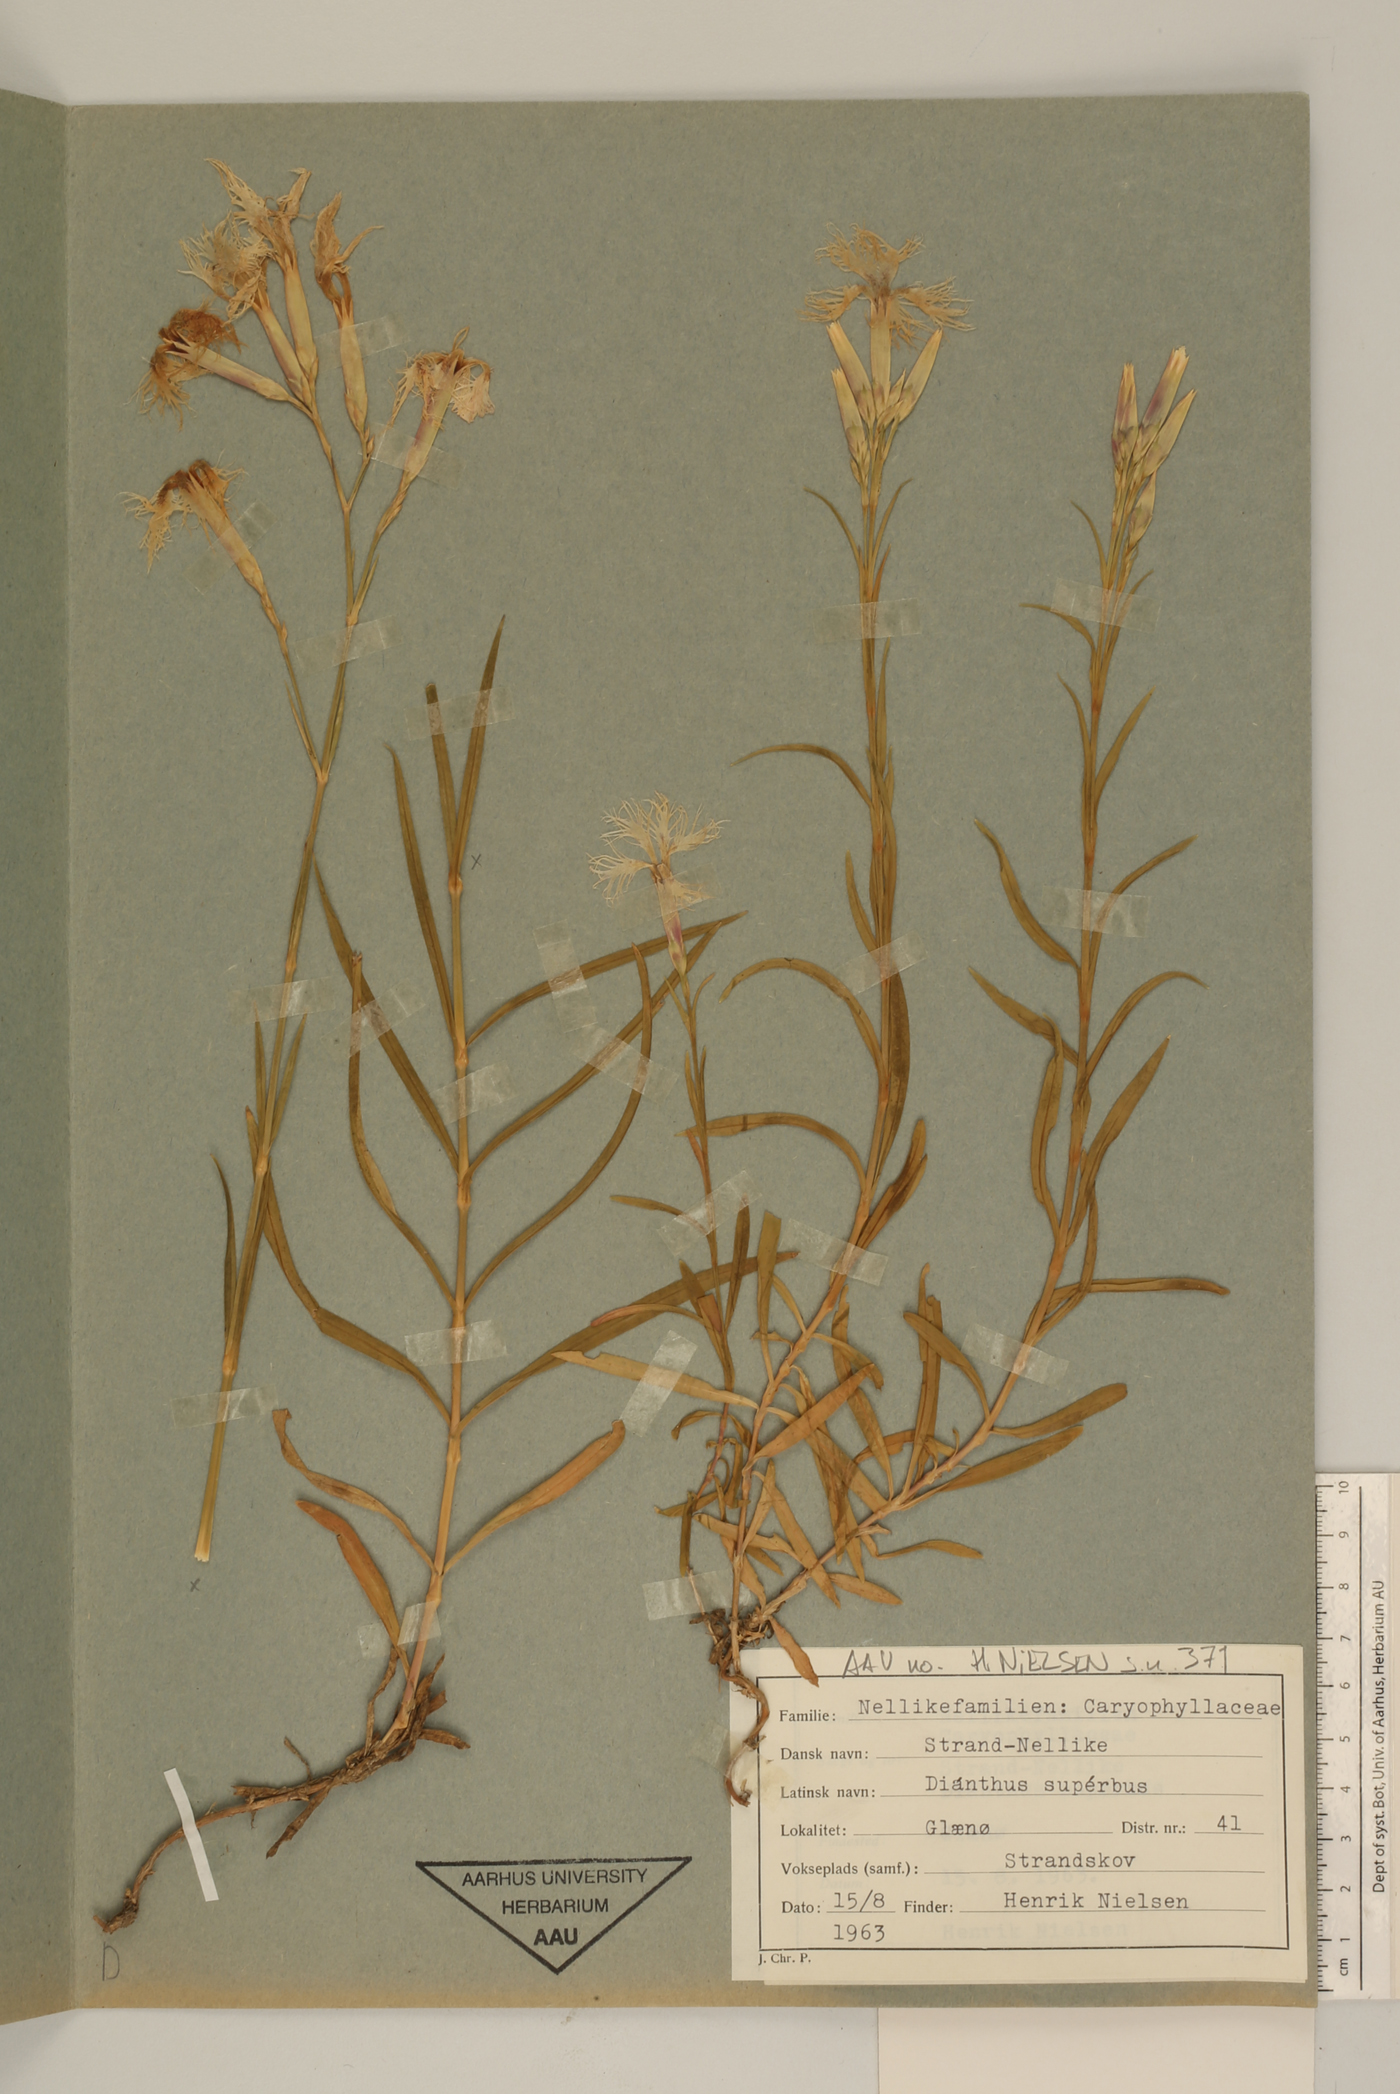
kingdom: Plantae
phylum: Tracheophyta
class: Magnoliopsida
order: Caryophyllales
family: Caryophyllaceae
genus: Dianthus
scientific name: Dianthus superbus
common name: Fringed pink
